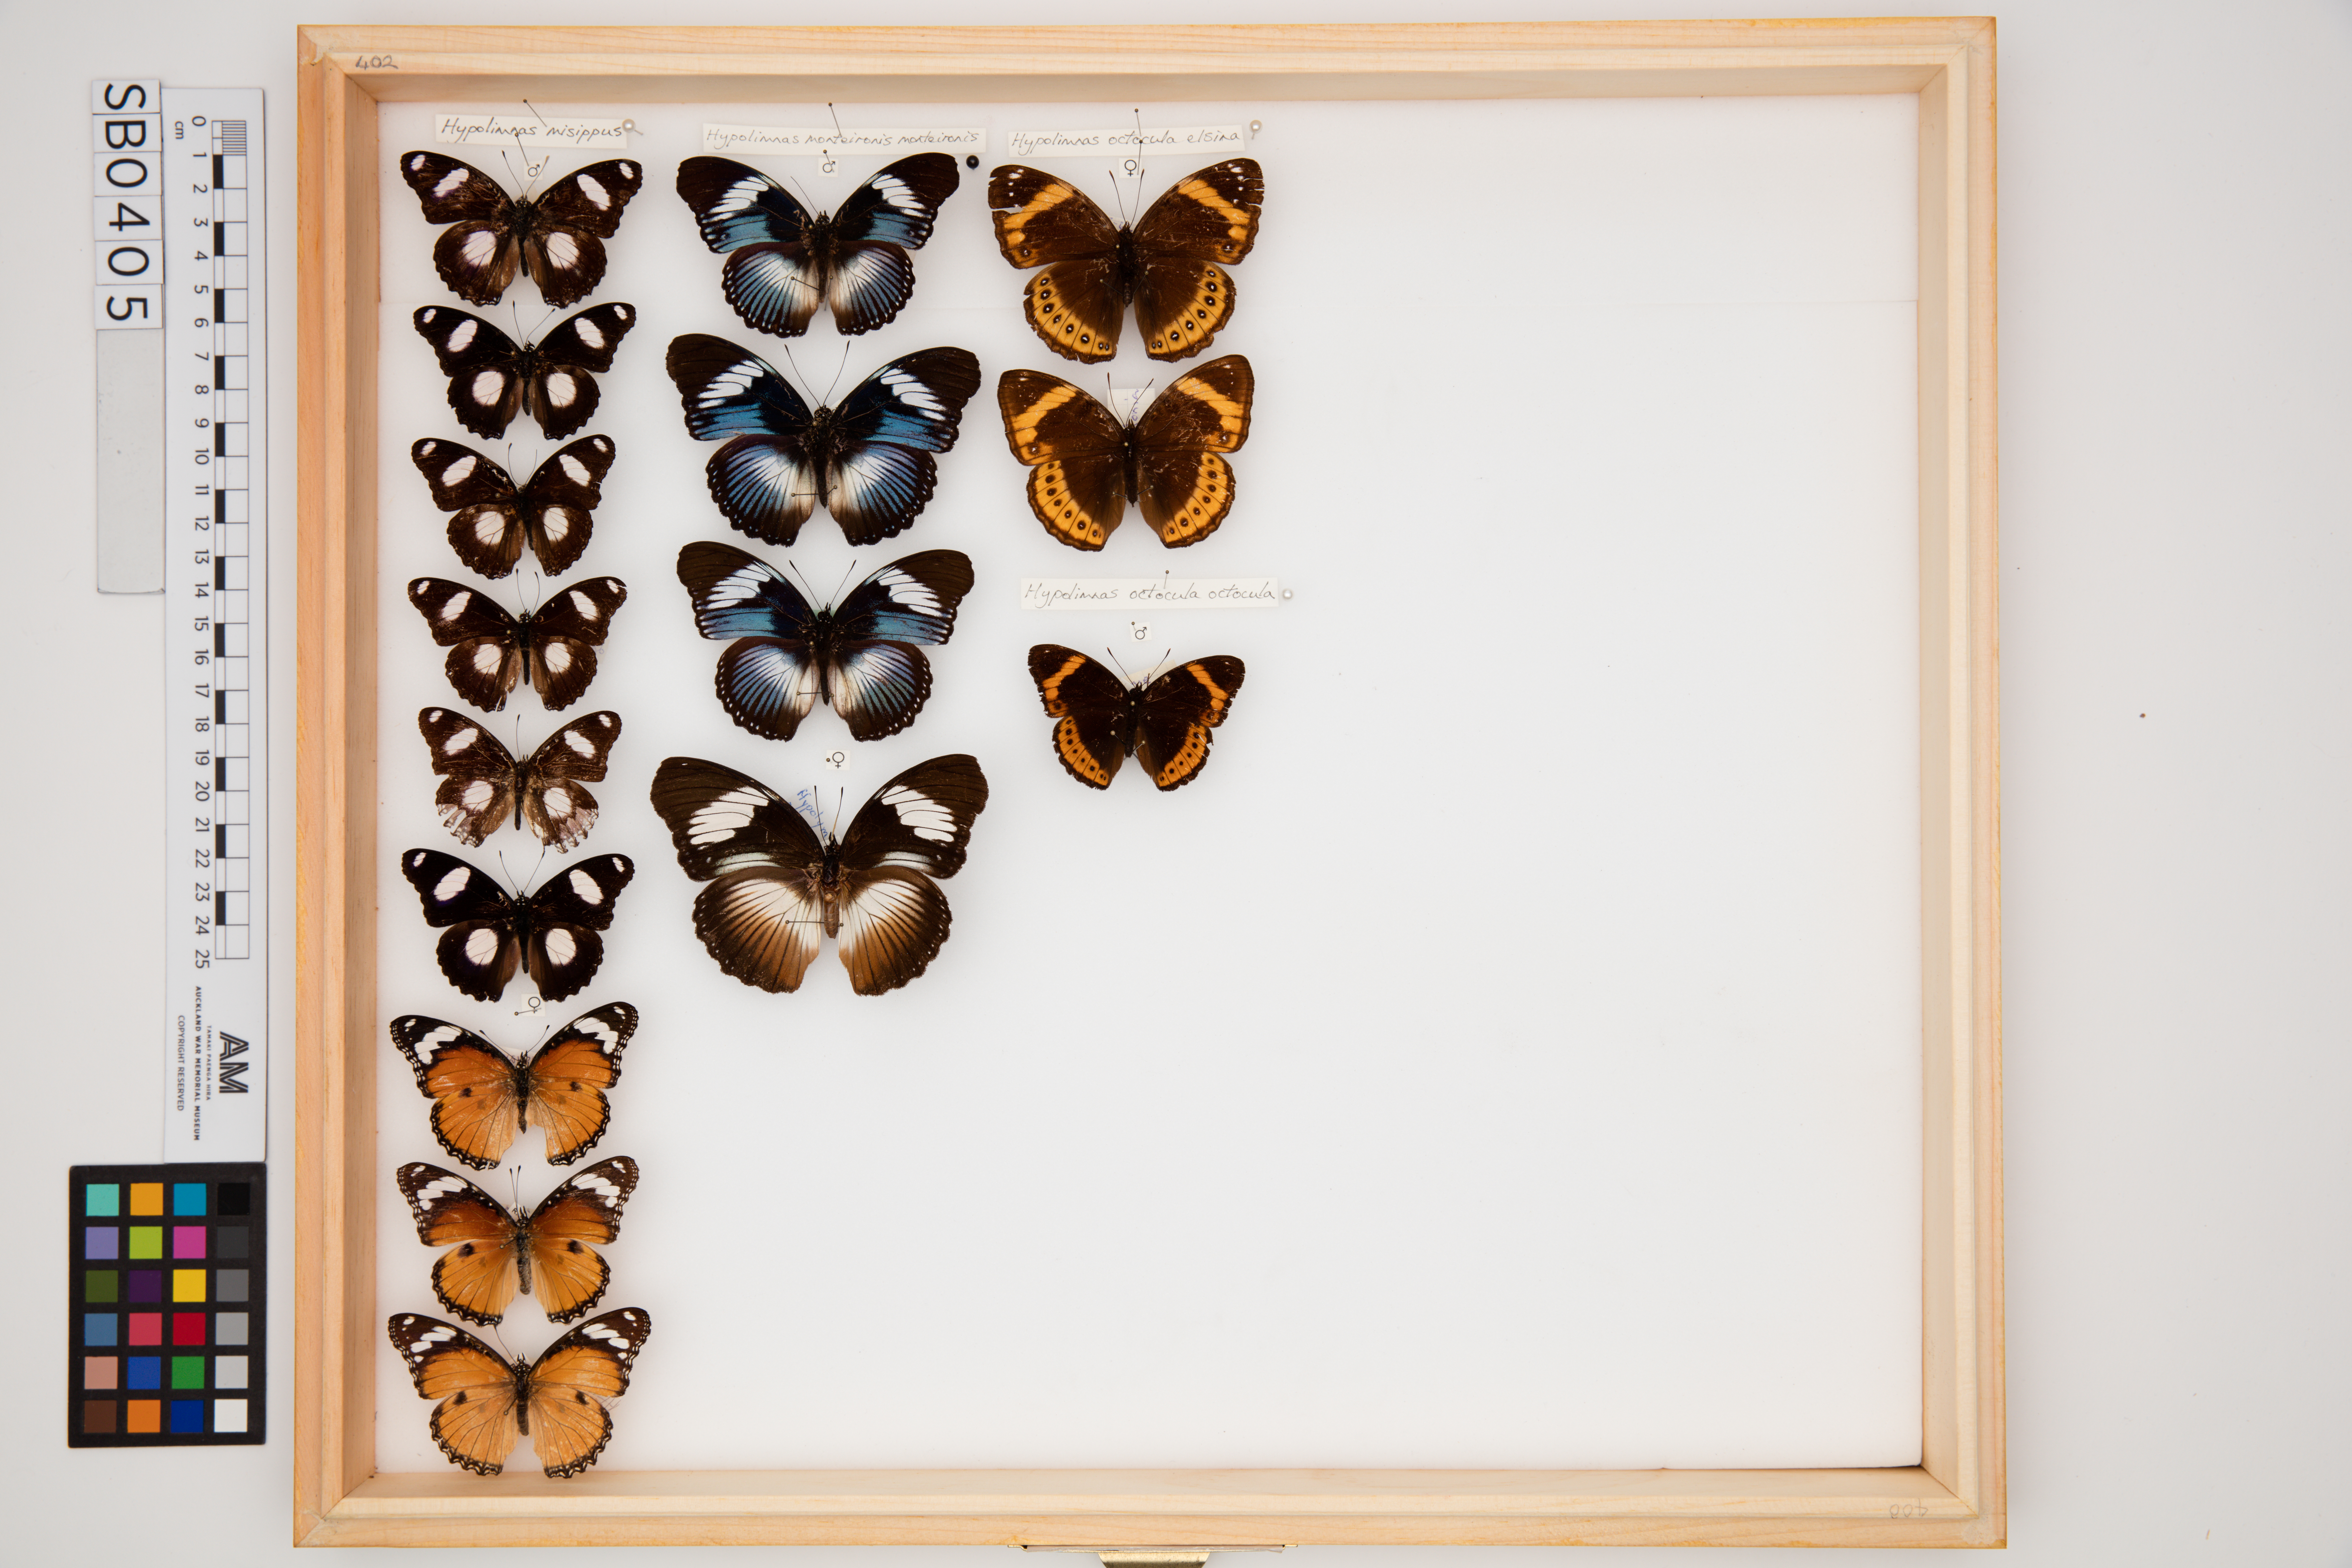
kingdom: Animalia
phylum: Arthropoda
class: Insecta
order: Lepidoptera
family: Nymphalidae
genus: Hypolimnas
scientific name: Hypolimnas misippus
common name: False plain tiger
